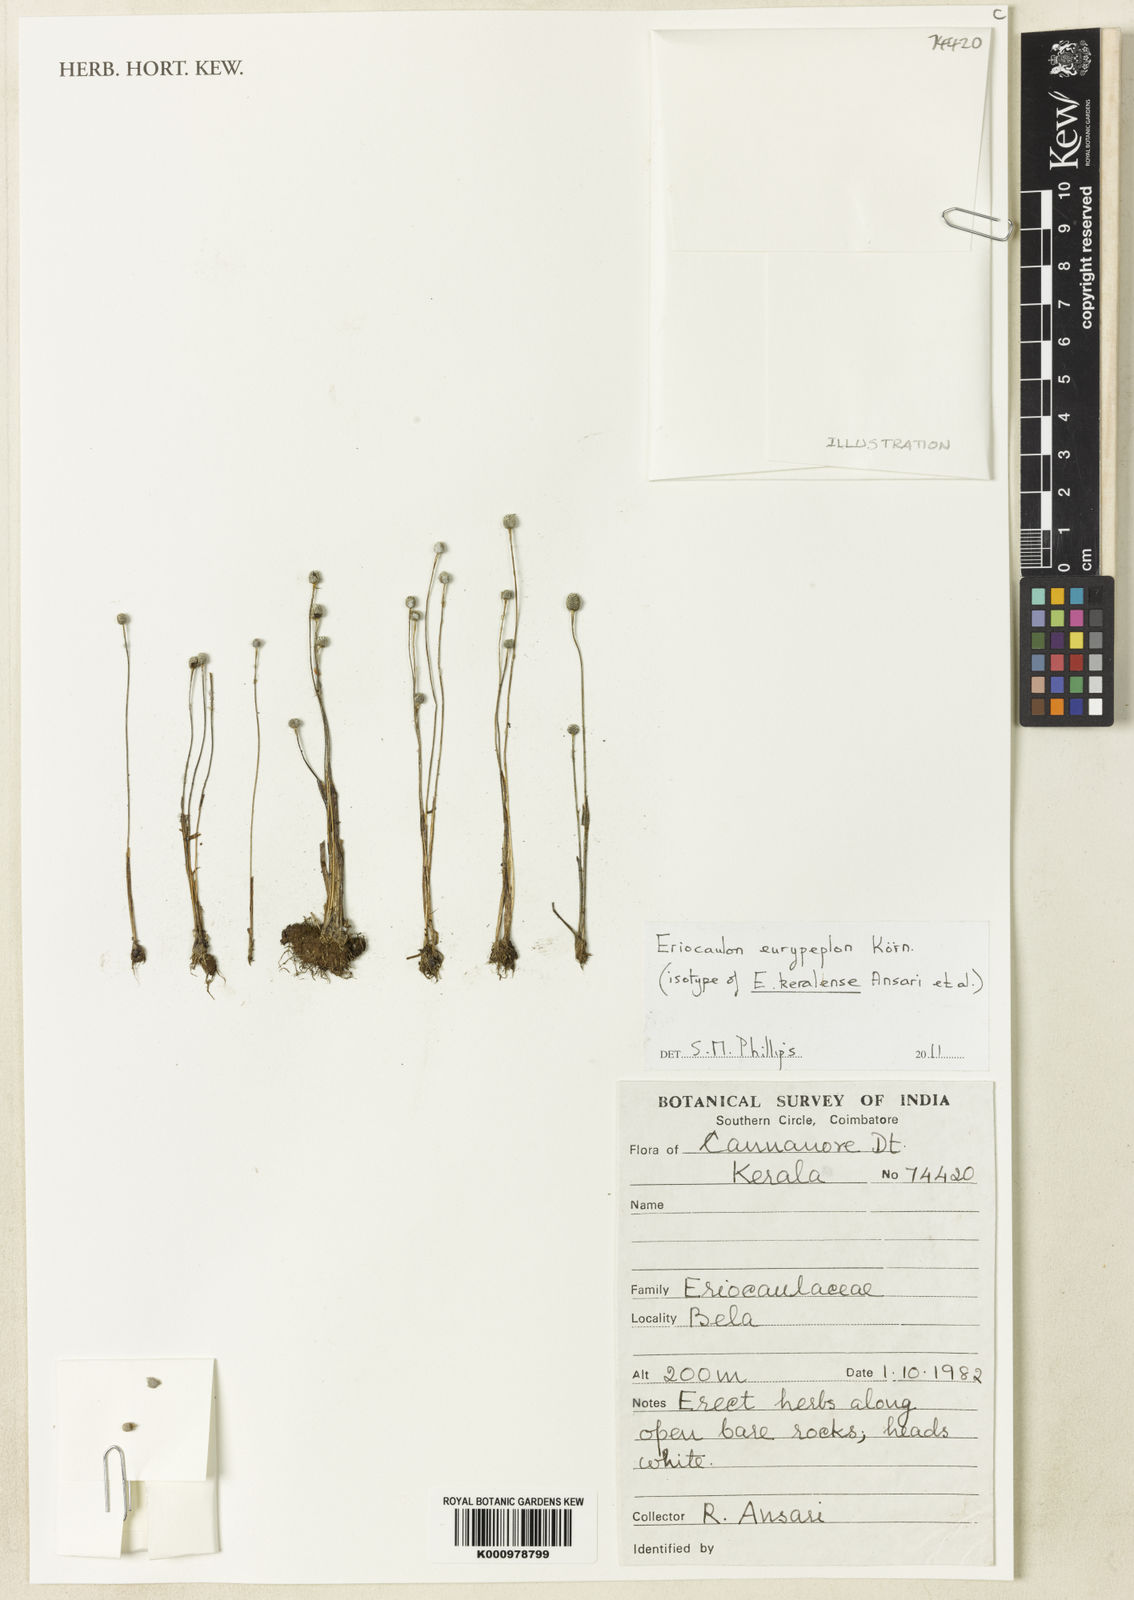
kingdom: Plantae
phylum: Tracheophyta
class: Liliopsida
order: Poales
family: Eriocaulaceae
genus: Eriocaulon
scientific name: Eriocaulon
